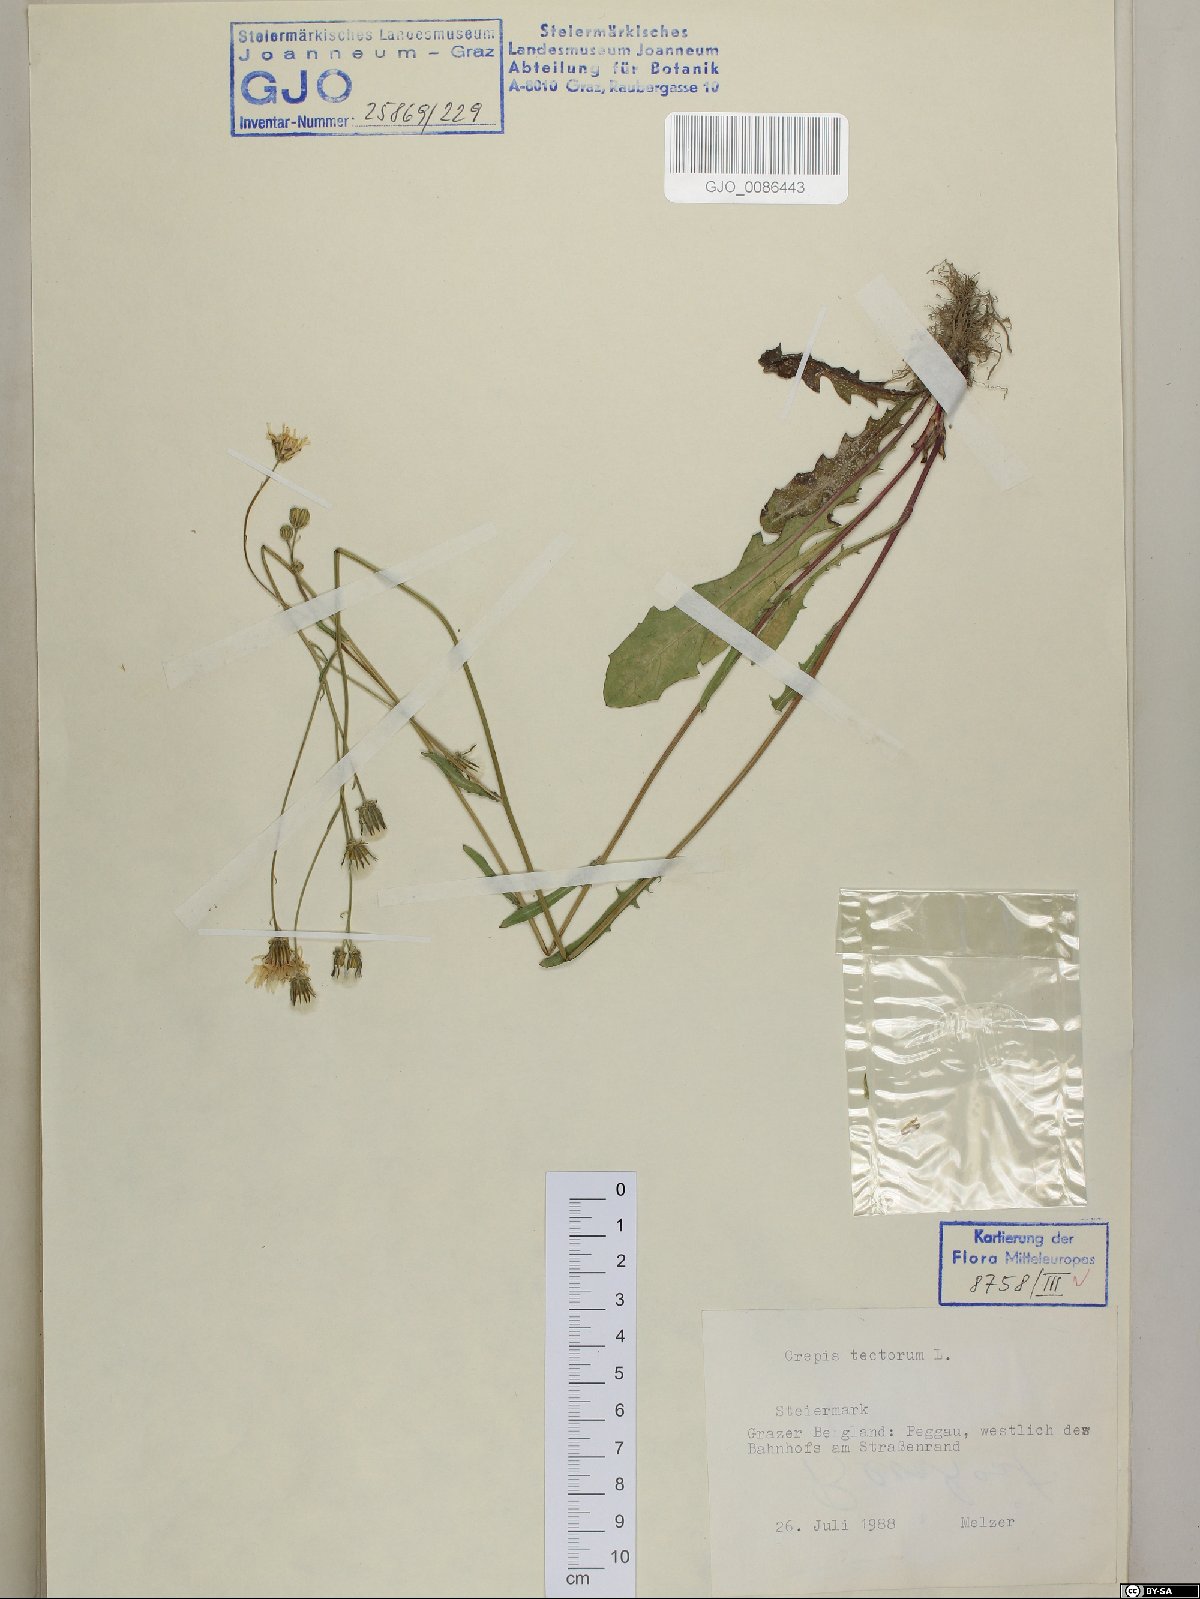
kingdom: Plantae
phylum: Tracheophyta
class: Magnoliopsida
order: Asterales
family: Asteraceae
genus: Crepis
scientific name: Crepis tectorum
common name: Narrow-leaved hawk's-beard
